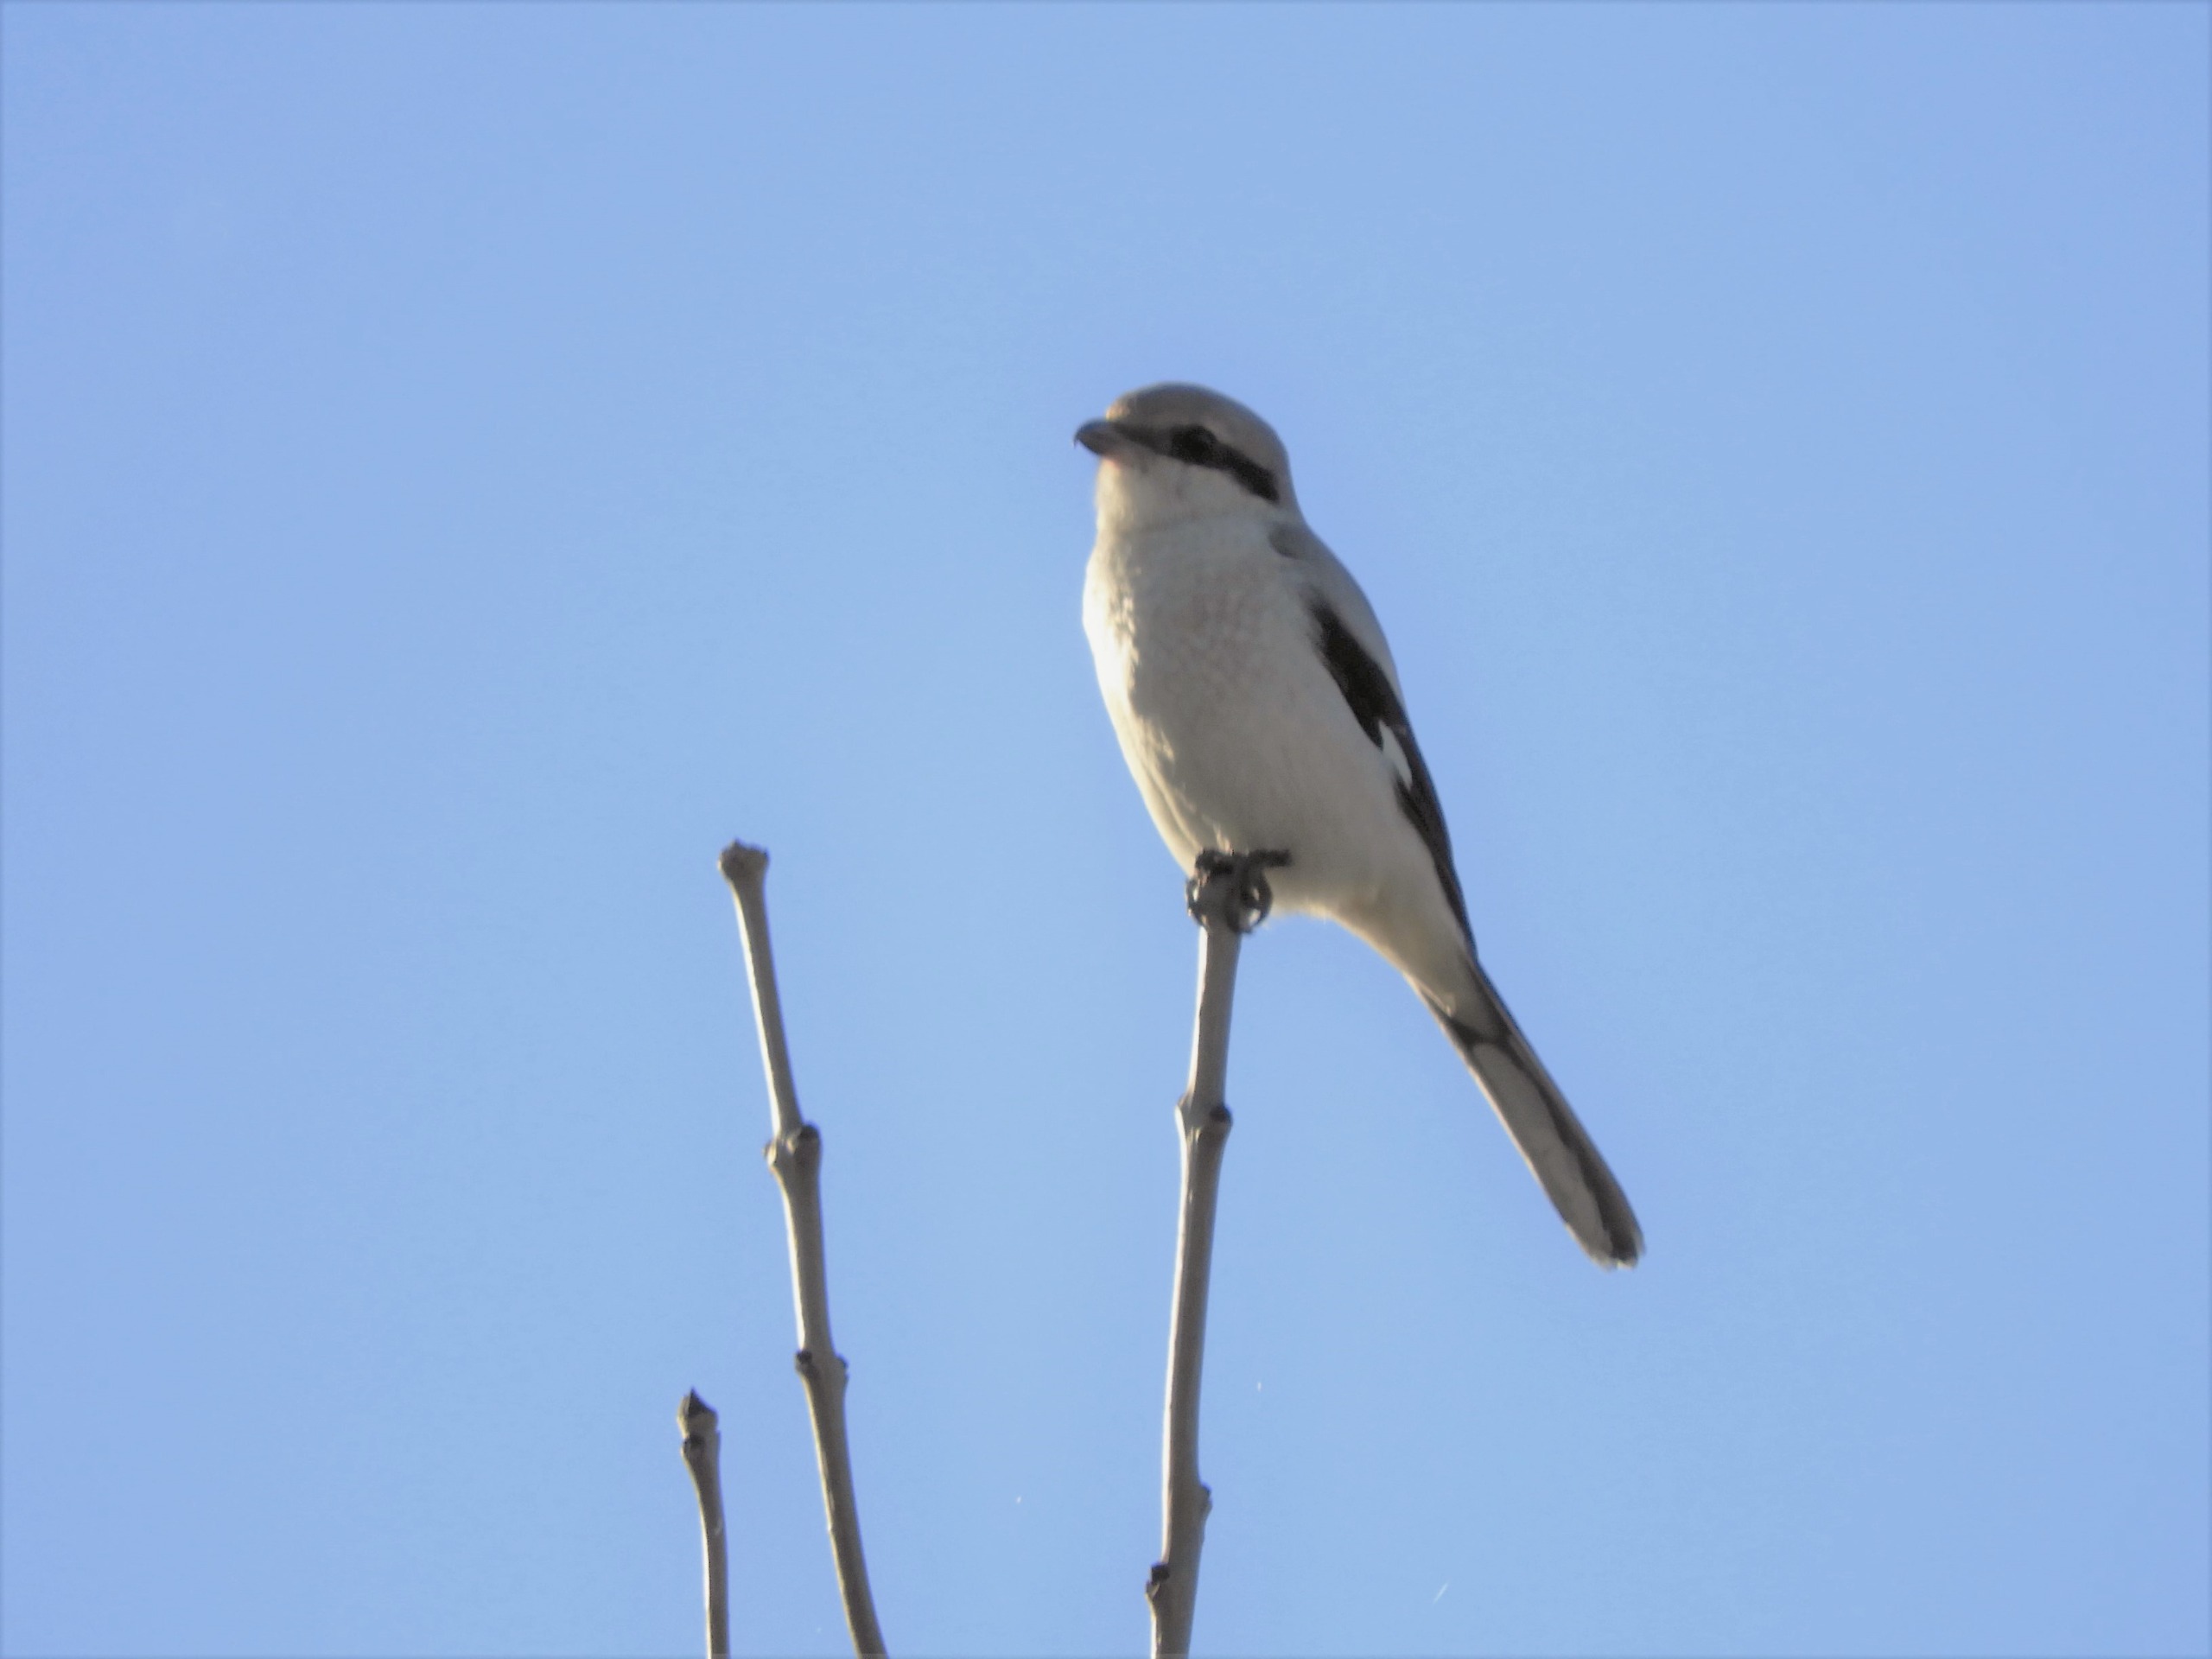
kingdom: Animalia
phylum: Chordata
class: Aves
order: Passeriformes
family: Laniidae
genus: Lanius
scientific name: Lanius excubitor
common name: Stor tornskade
